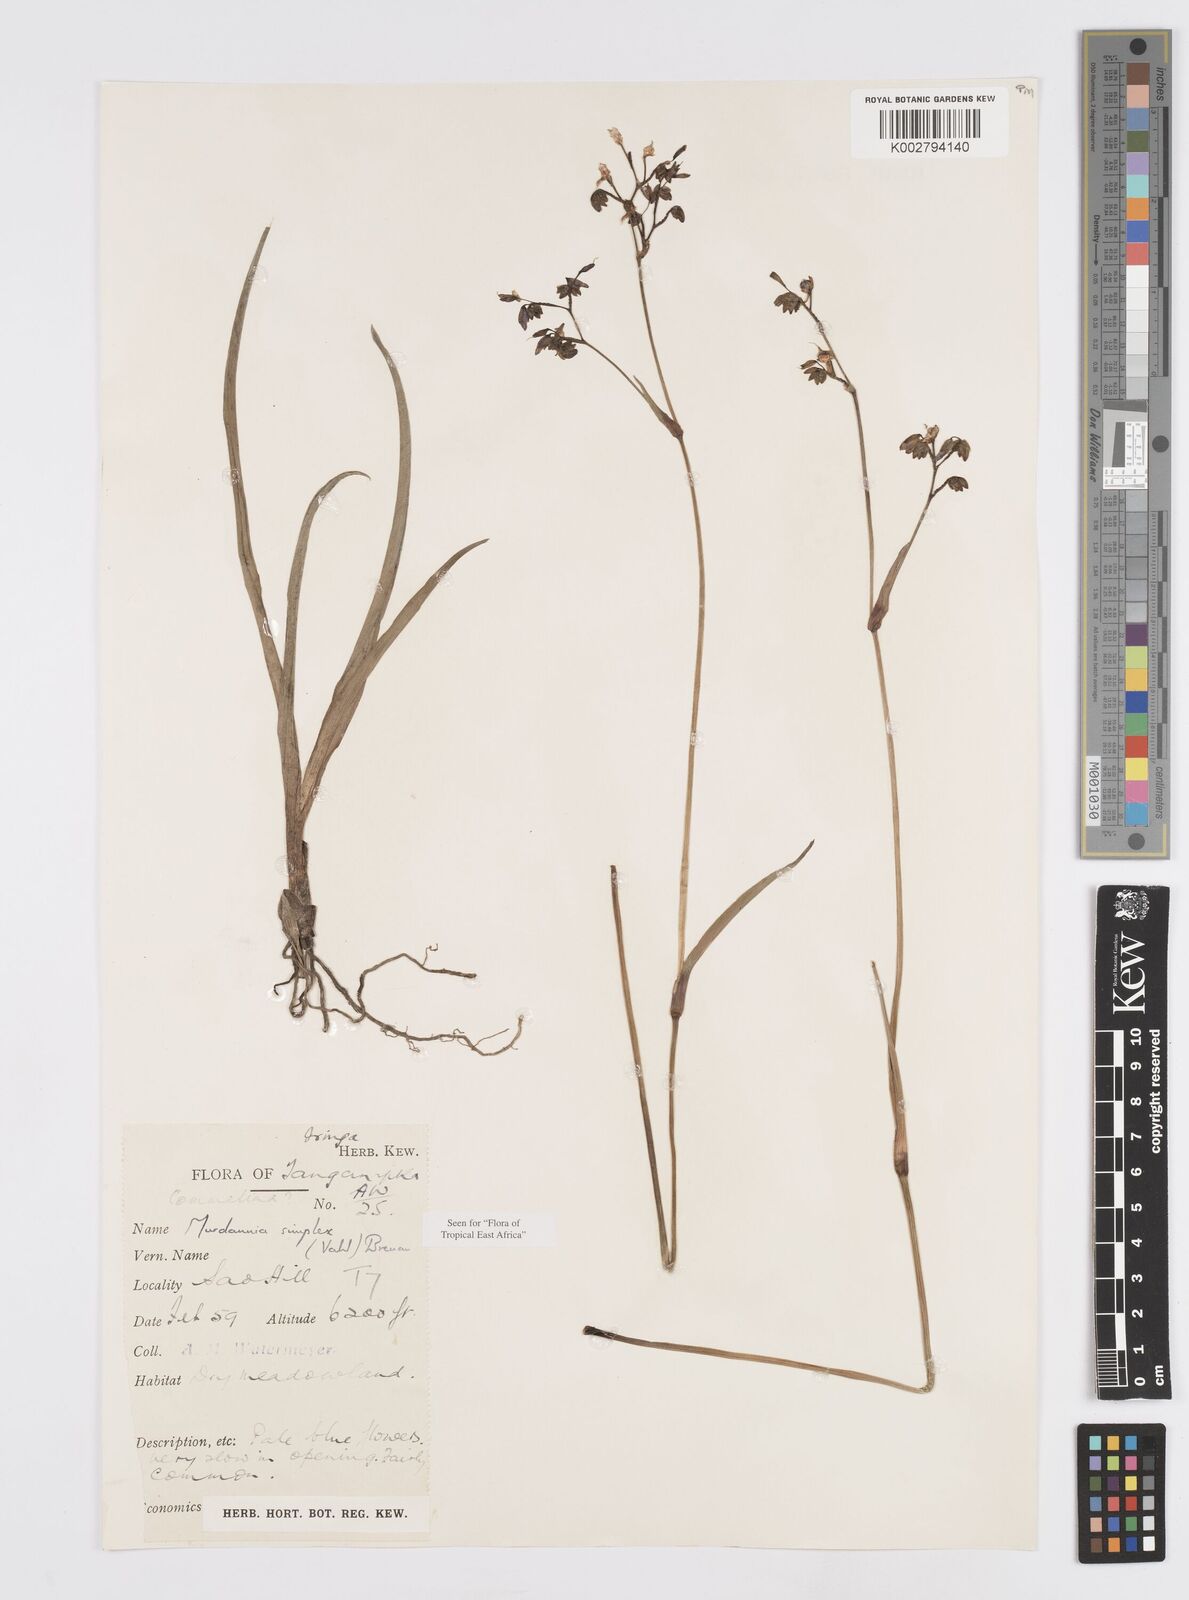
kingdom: Plantae
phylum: Tracheophyta
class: Liliopsida
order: Commelinales
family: Commelinaceae
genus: Murdannia
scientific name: Murdannia simplex
